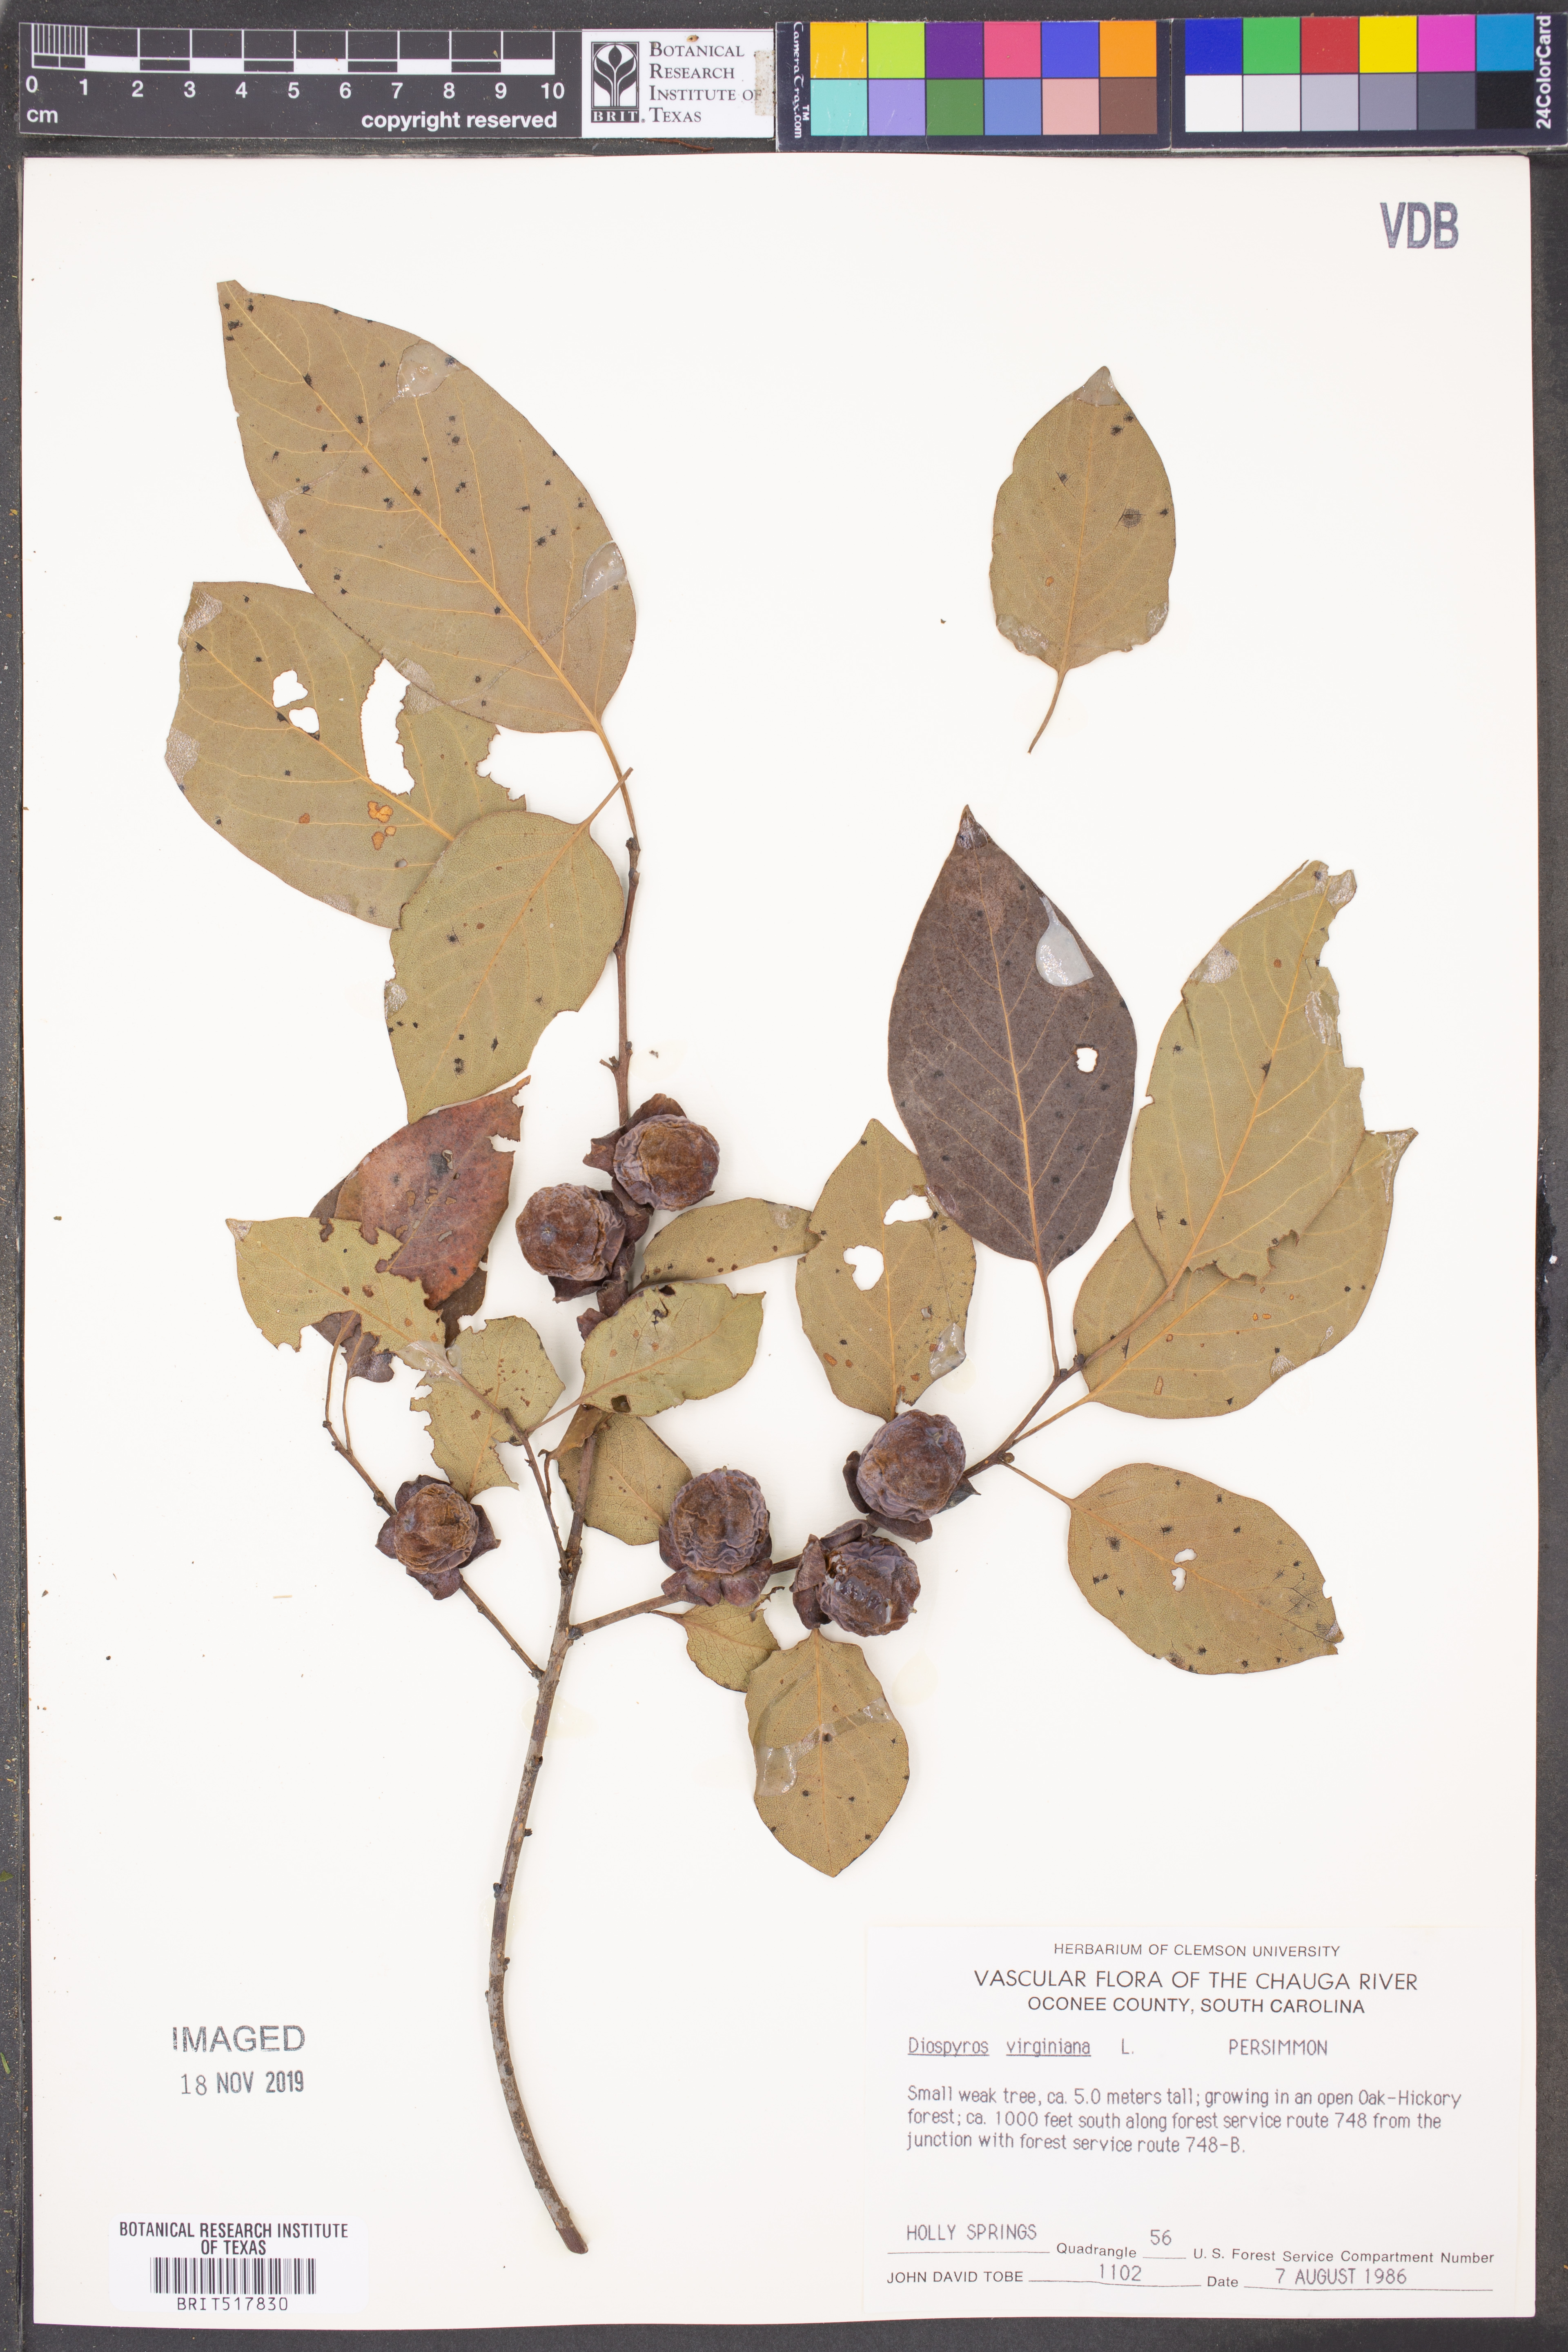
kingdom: Plantae
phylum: Tracheophyta
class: Magnoliopsida
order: Ericales
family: Ebenaceae
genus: Diospyros
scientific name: Diospyros virginiana
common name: Persimmon
